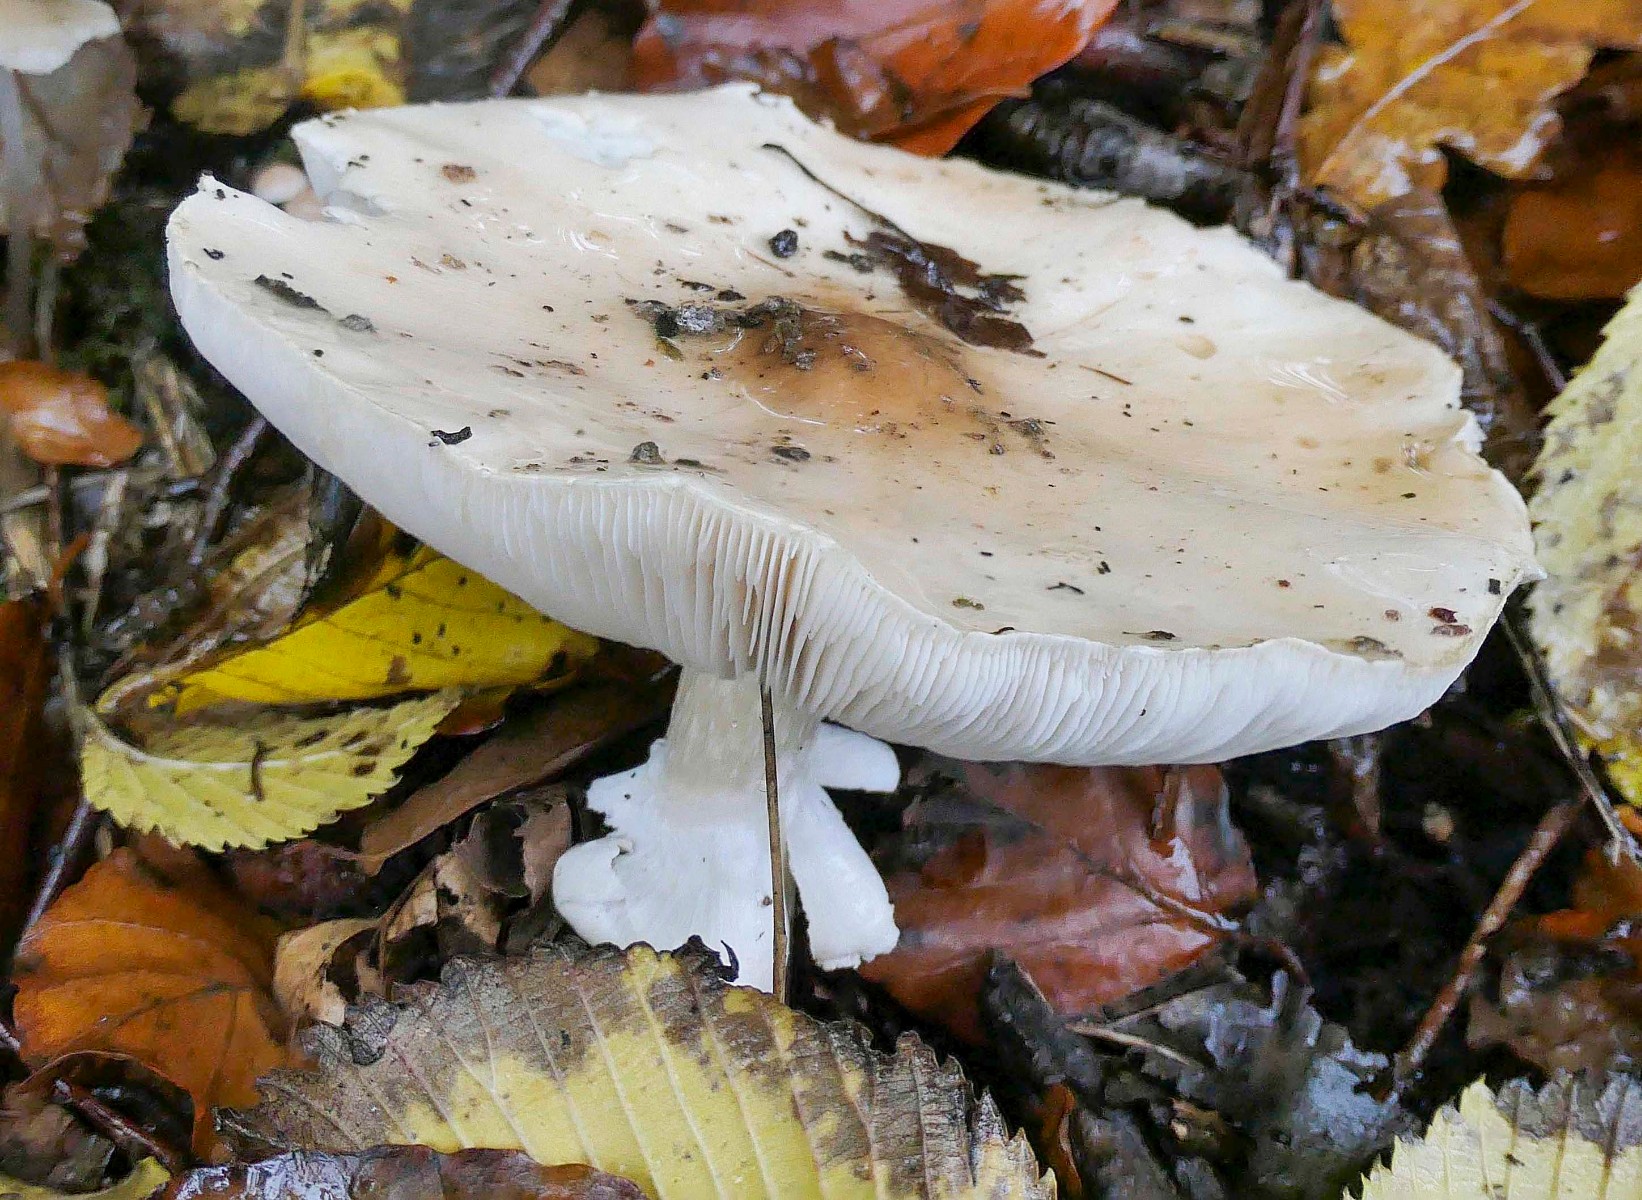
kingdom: Fungi
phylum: Basidiomycota
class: Agaricomycetes
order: Agaricales
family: Amanitaceae
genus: Limacellopsis
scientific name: Limacellopsis guttata
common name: tåre-snekkehat
